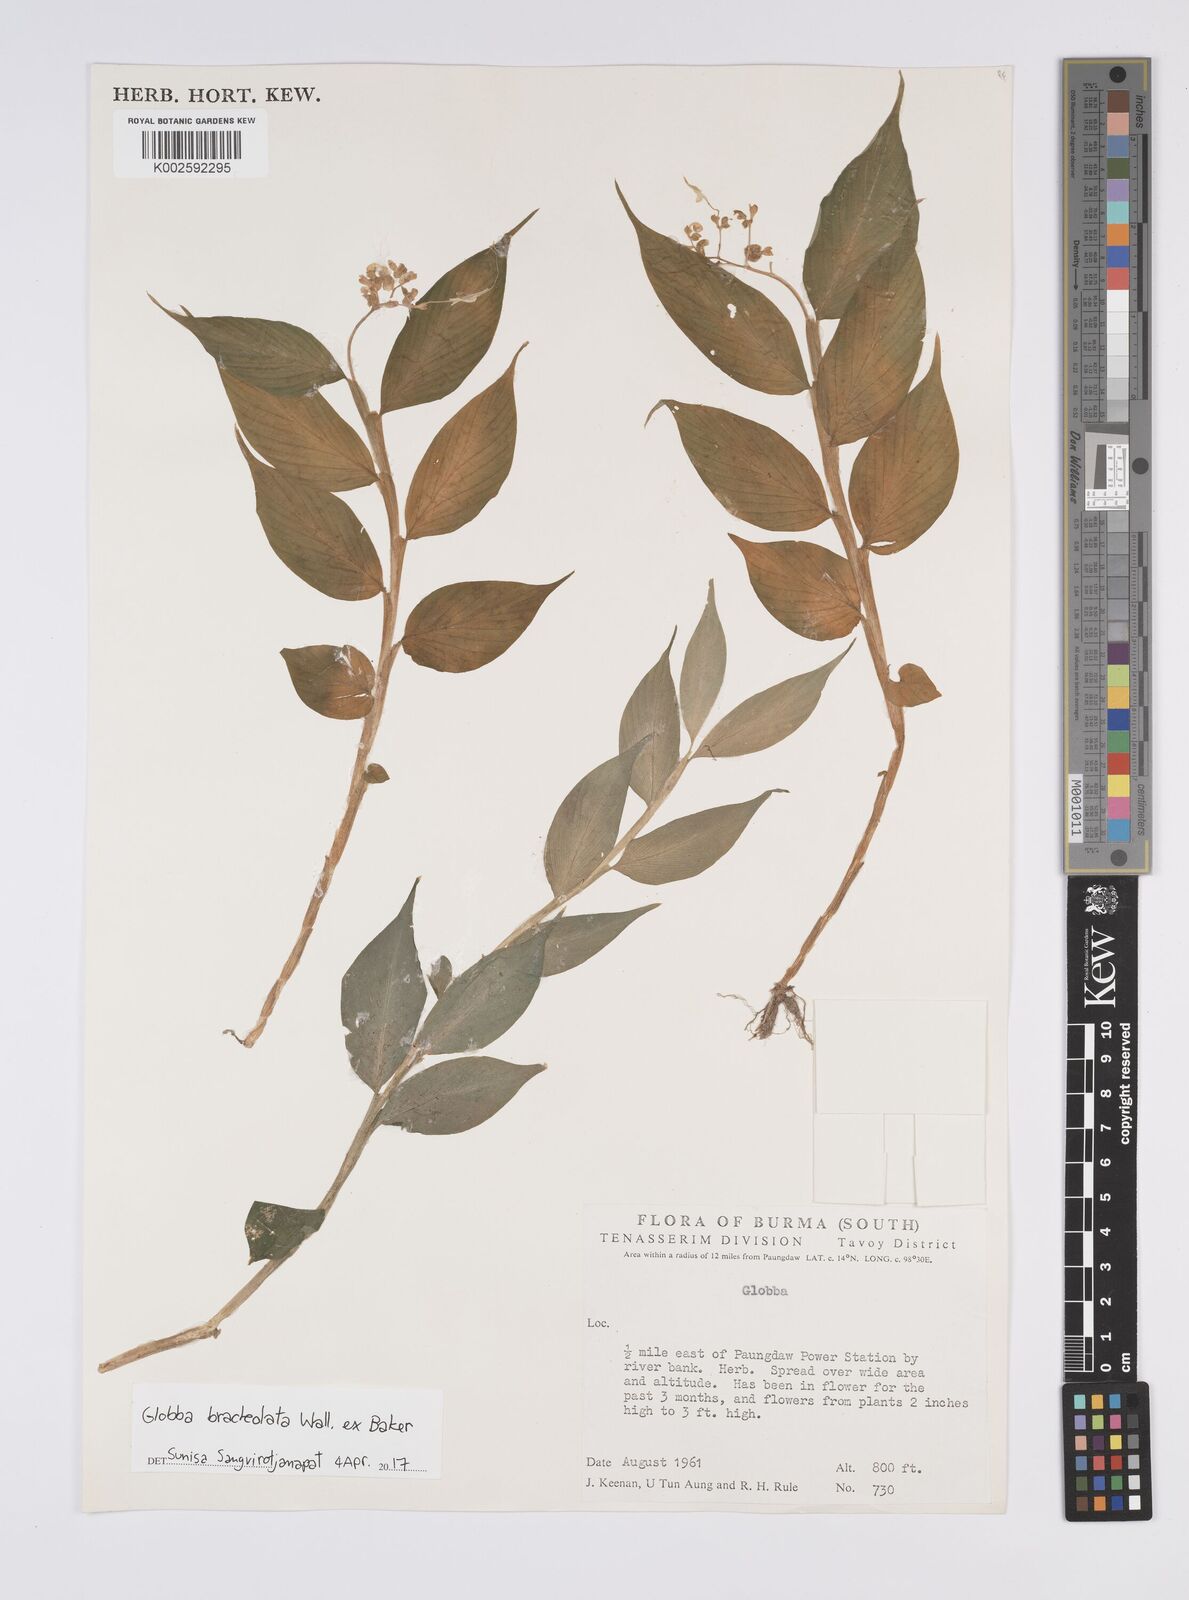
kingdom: Plantae
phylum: Tracheophyta
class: Liliopsida
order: Zingiberales
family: Zingiberaceae
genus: Globba
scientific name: Globba bracteolata
